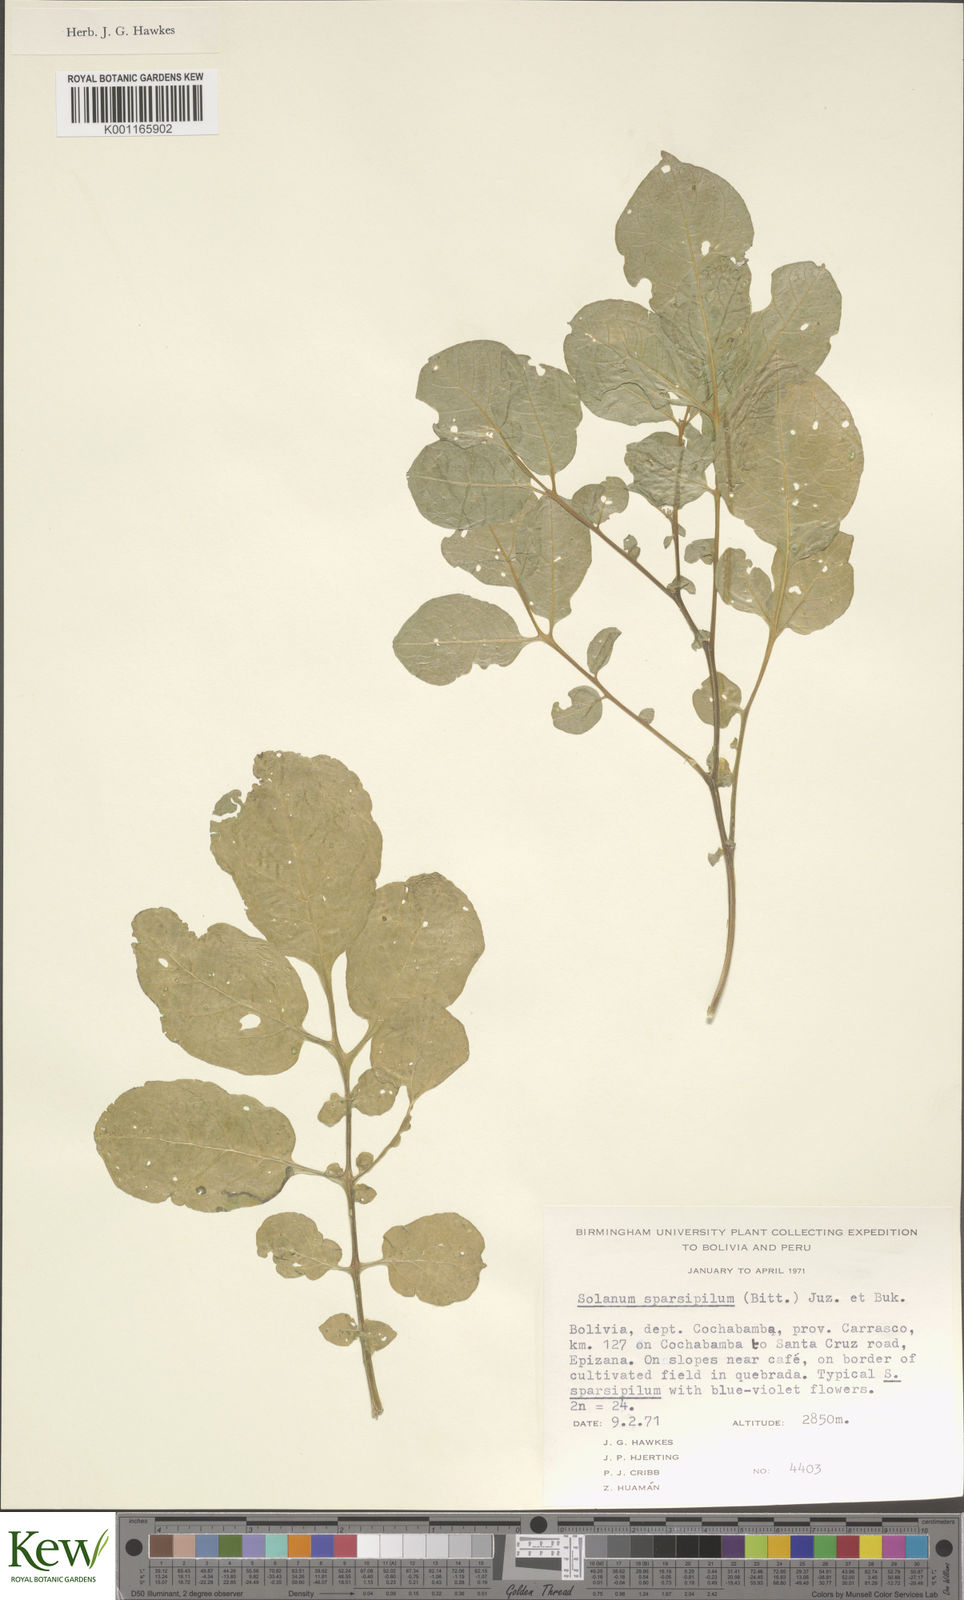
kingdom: Plantae
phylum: Tracheophyta
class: Magnoliopsida
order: Solanales
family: Solanaceae
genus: Solanum
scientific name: Solanum brevicaule
